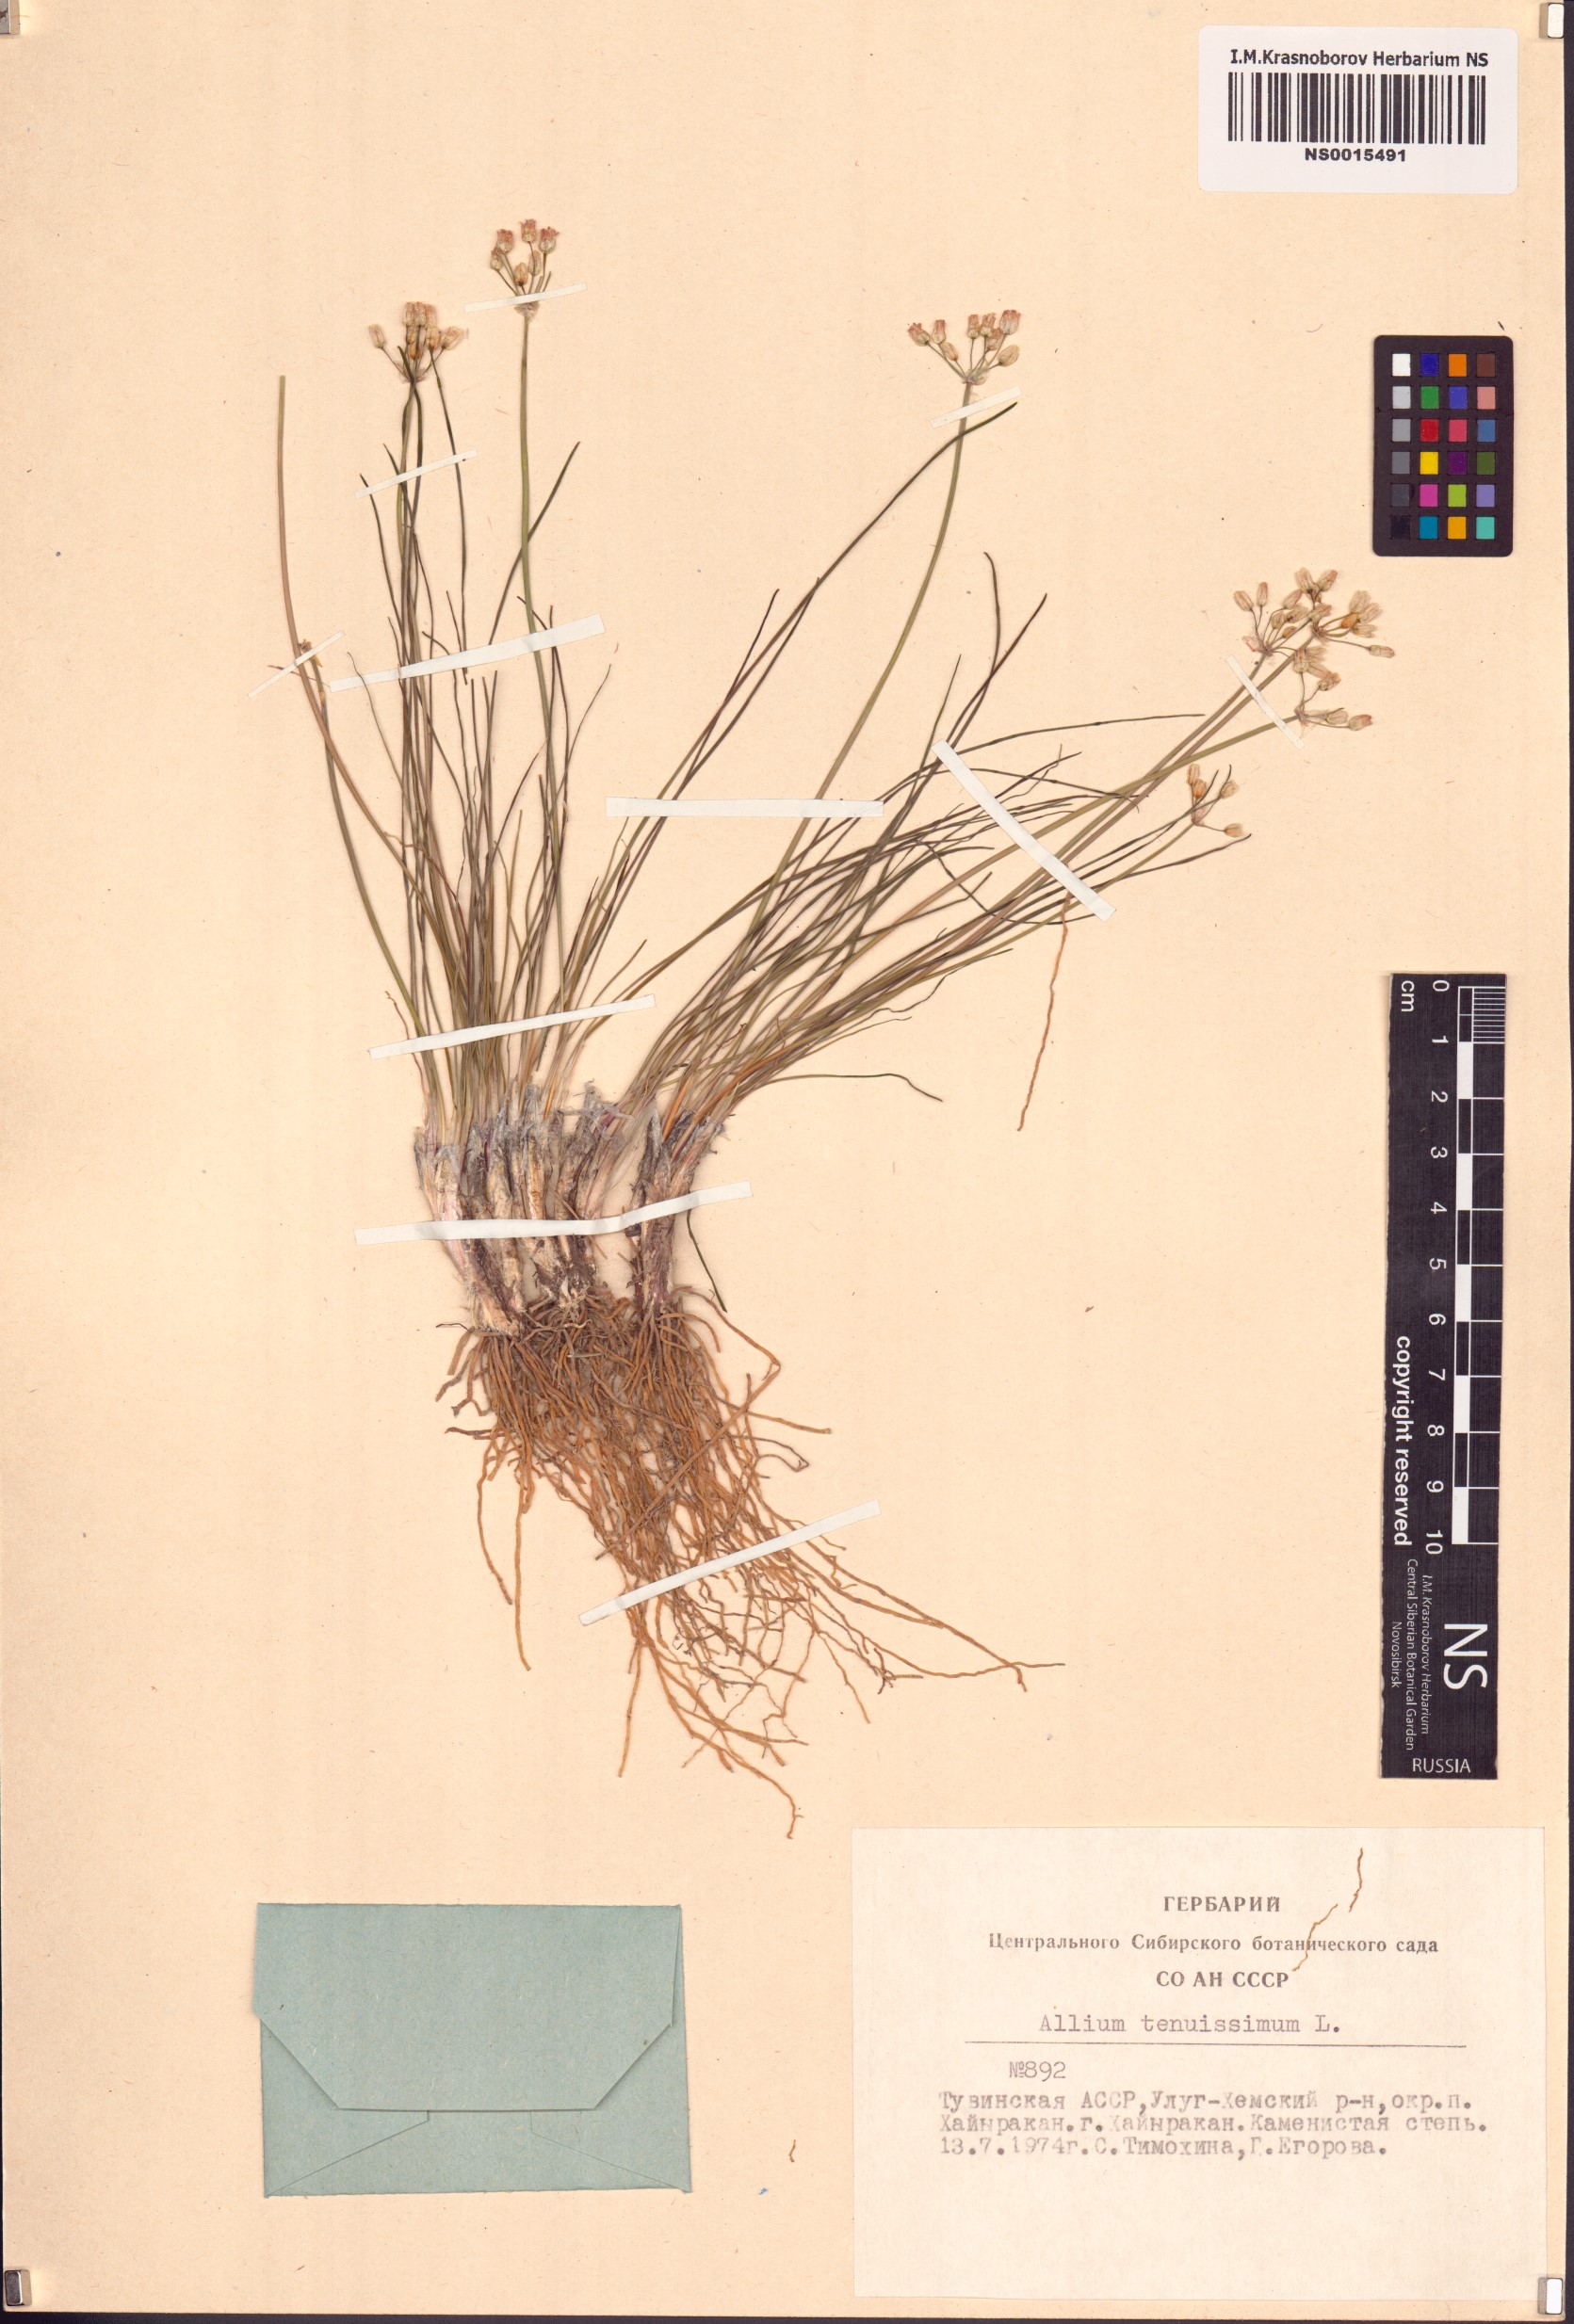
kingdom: Plantae
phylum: Tracheophyta
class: Liliopsida
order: Asparagales
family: Amaryllidaceae
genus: Allium
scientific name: Allium tenuissimum
